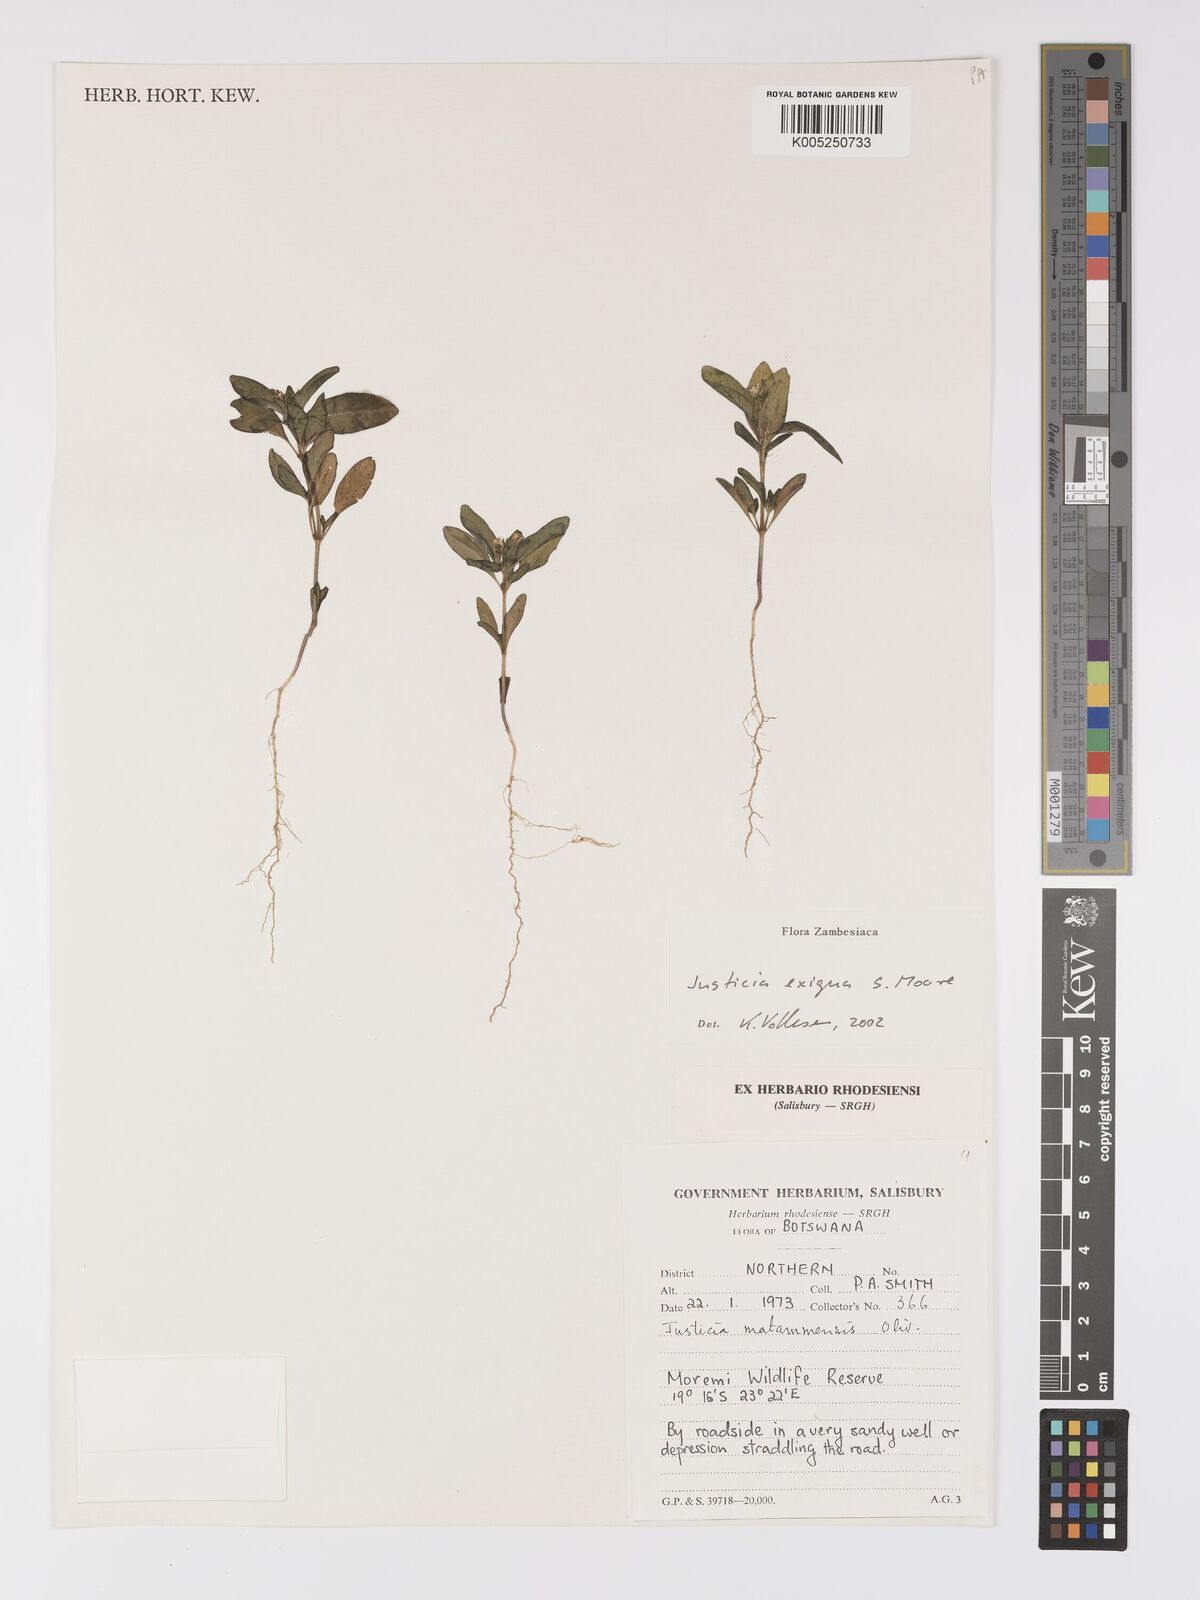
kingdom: Plantae
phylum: Tracheophyta
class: Magnoliopsida
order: Lamiales
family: Acanthaceae
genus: Justicia
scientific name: Justicia exigua
